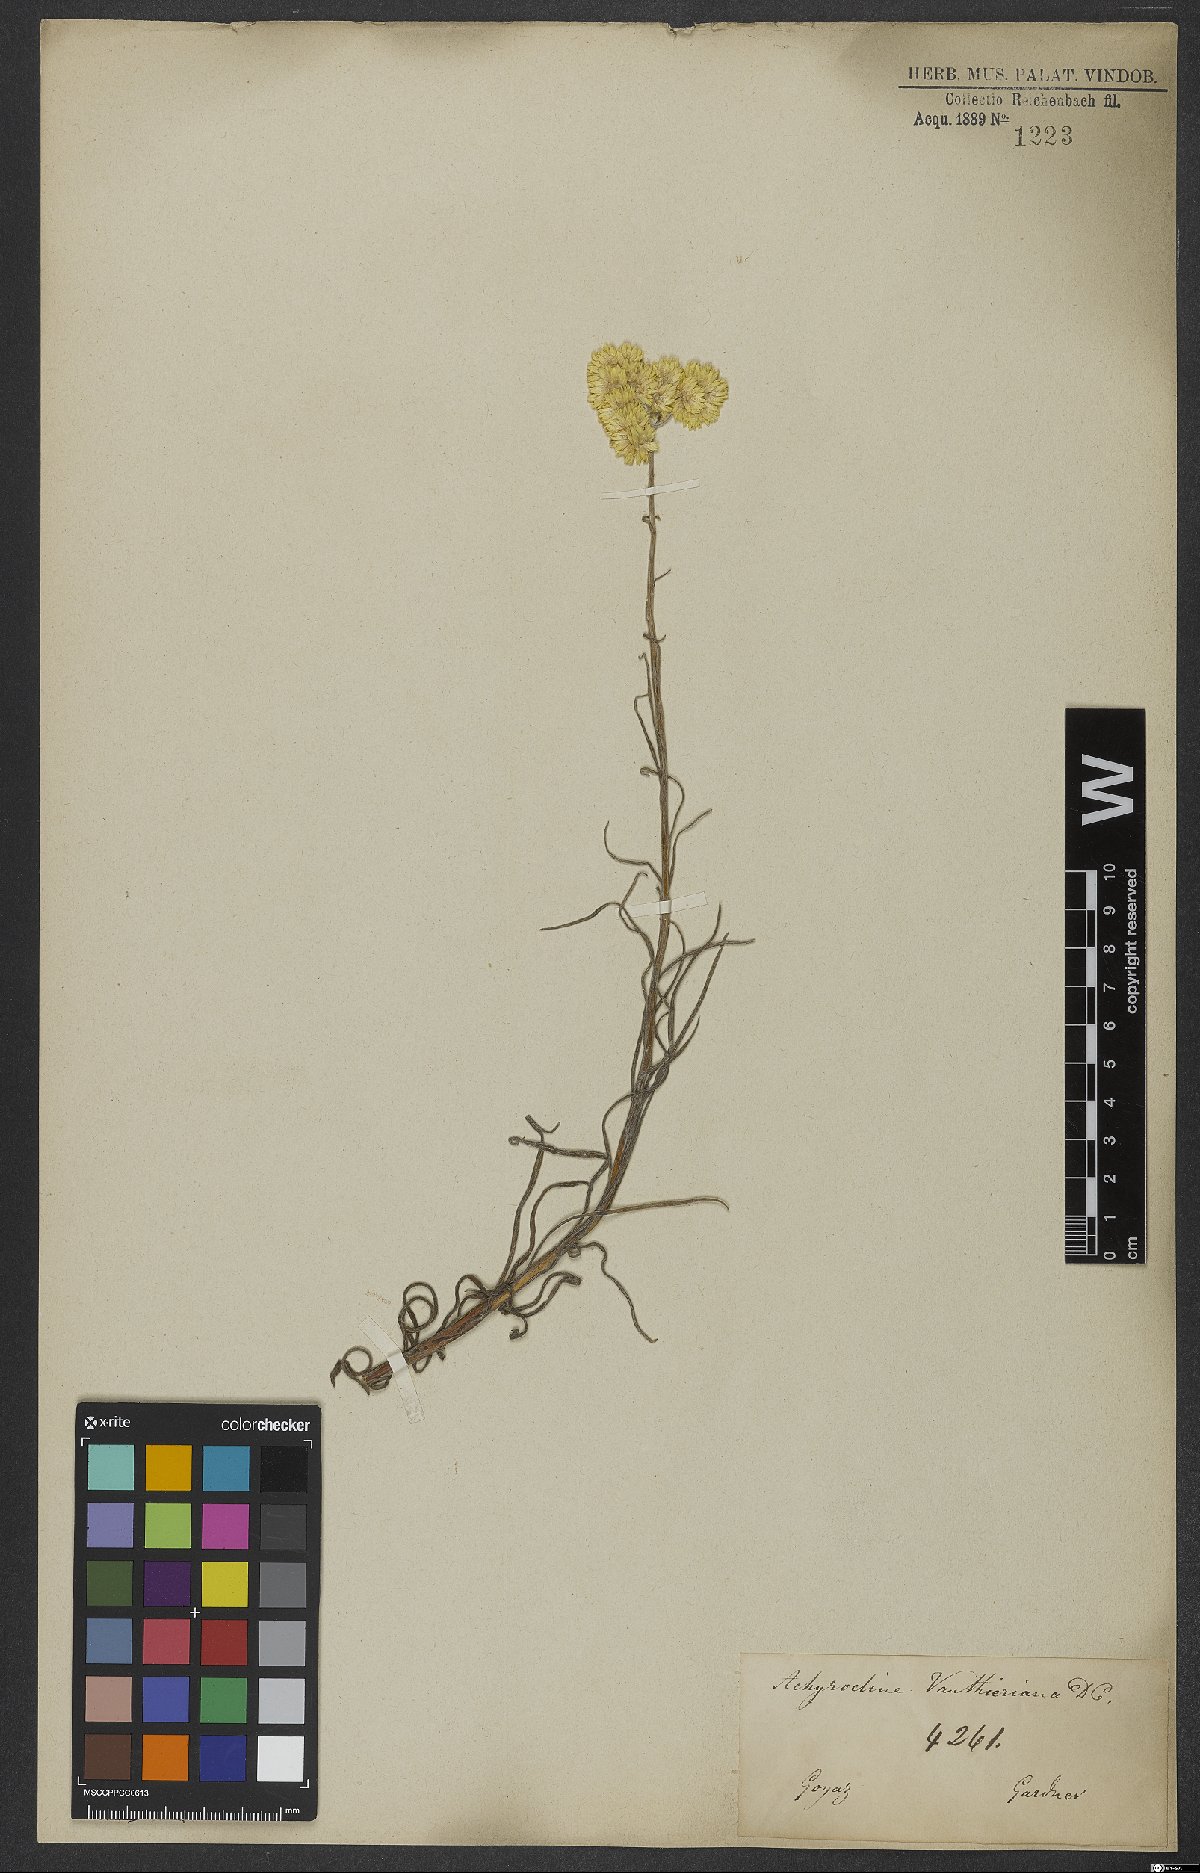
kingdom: Plantae
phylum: Tracheophyta
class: Magnoliopsida
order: Asterales
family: Asteraceae
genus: Achyrocline
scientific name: Achyrocline vauthieriana
